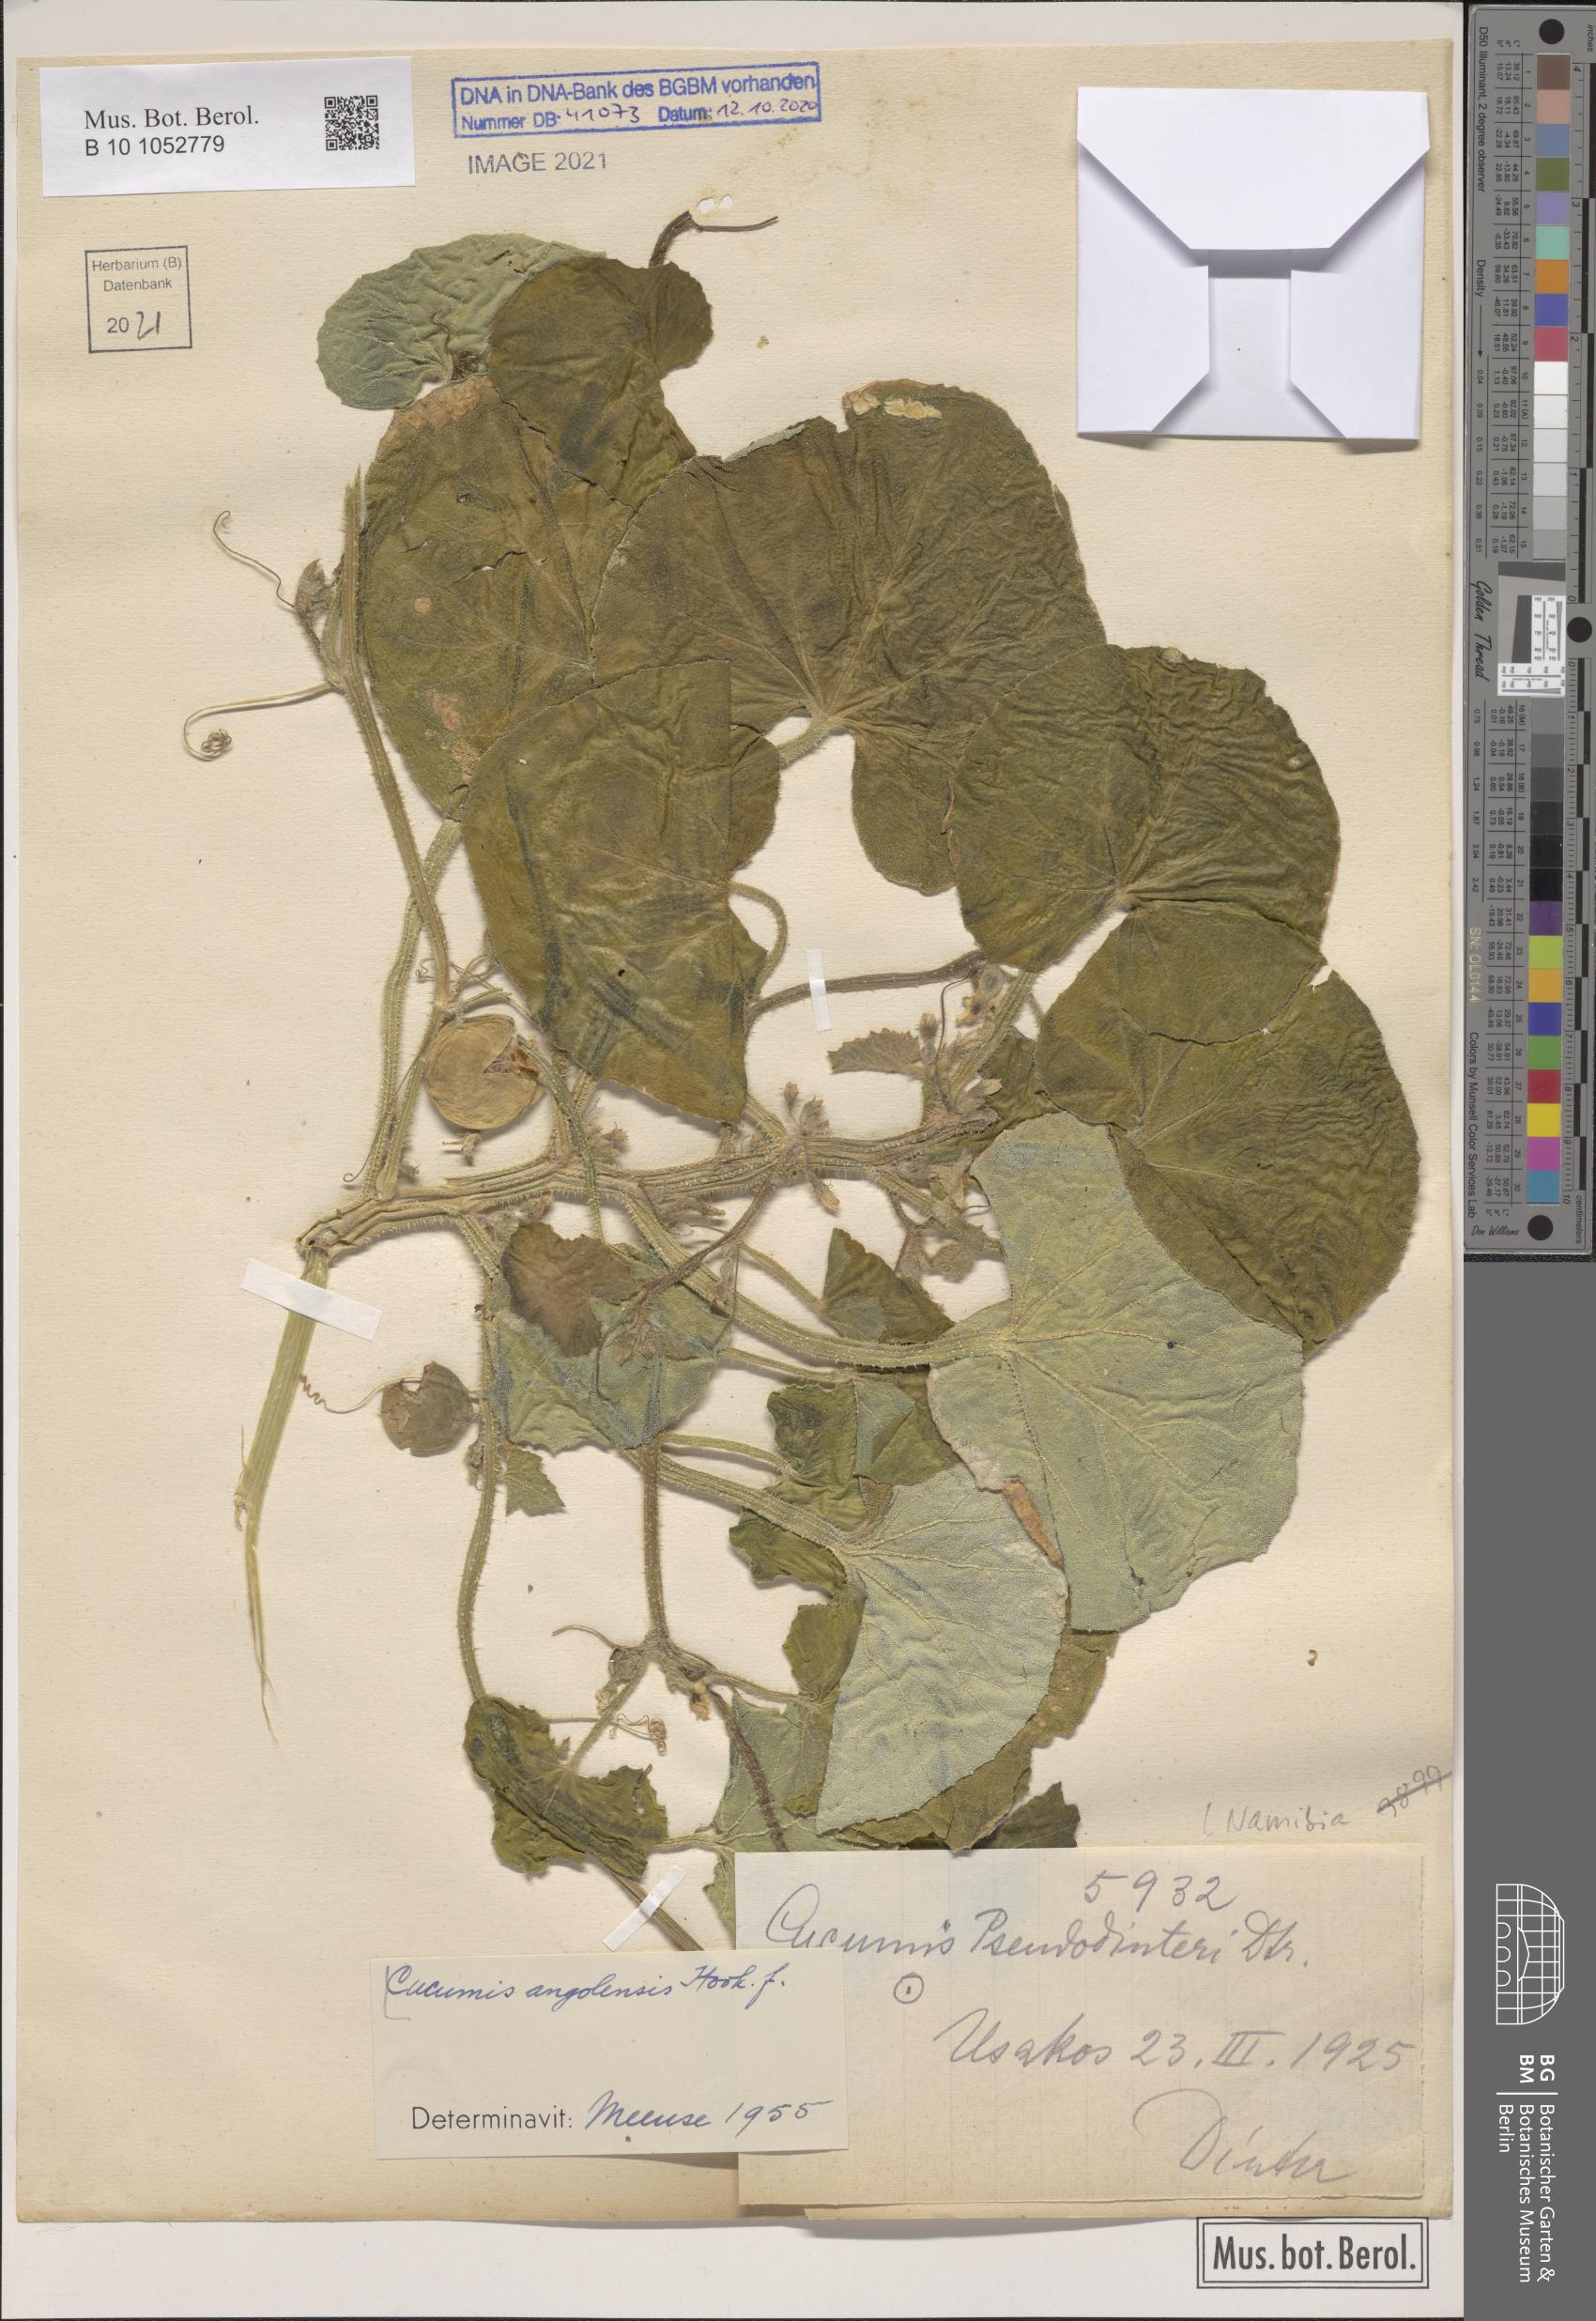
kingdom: Plantae
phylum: Tracheophyta
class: Magnoliopsida
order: Cucurbitales
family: Cucurbitaceae
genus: Cucumis
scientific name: Cucumis sagittatus
